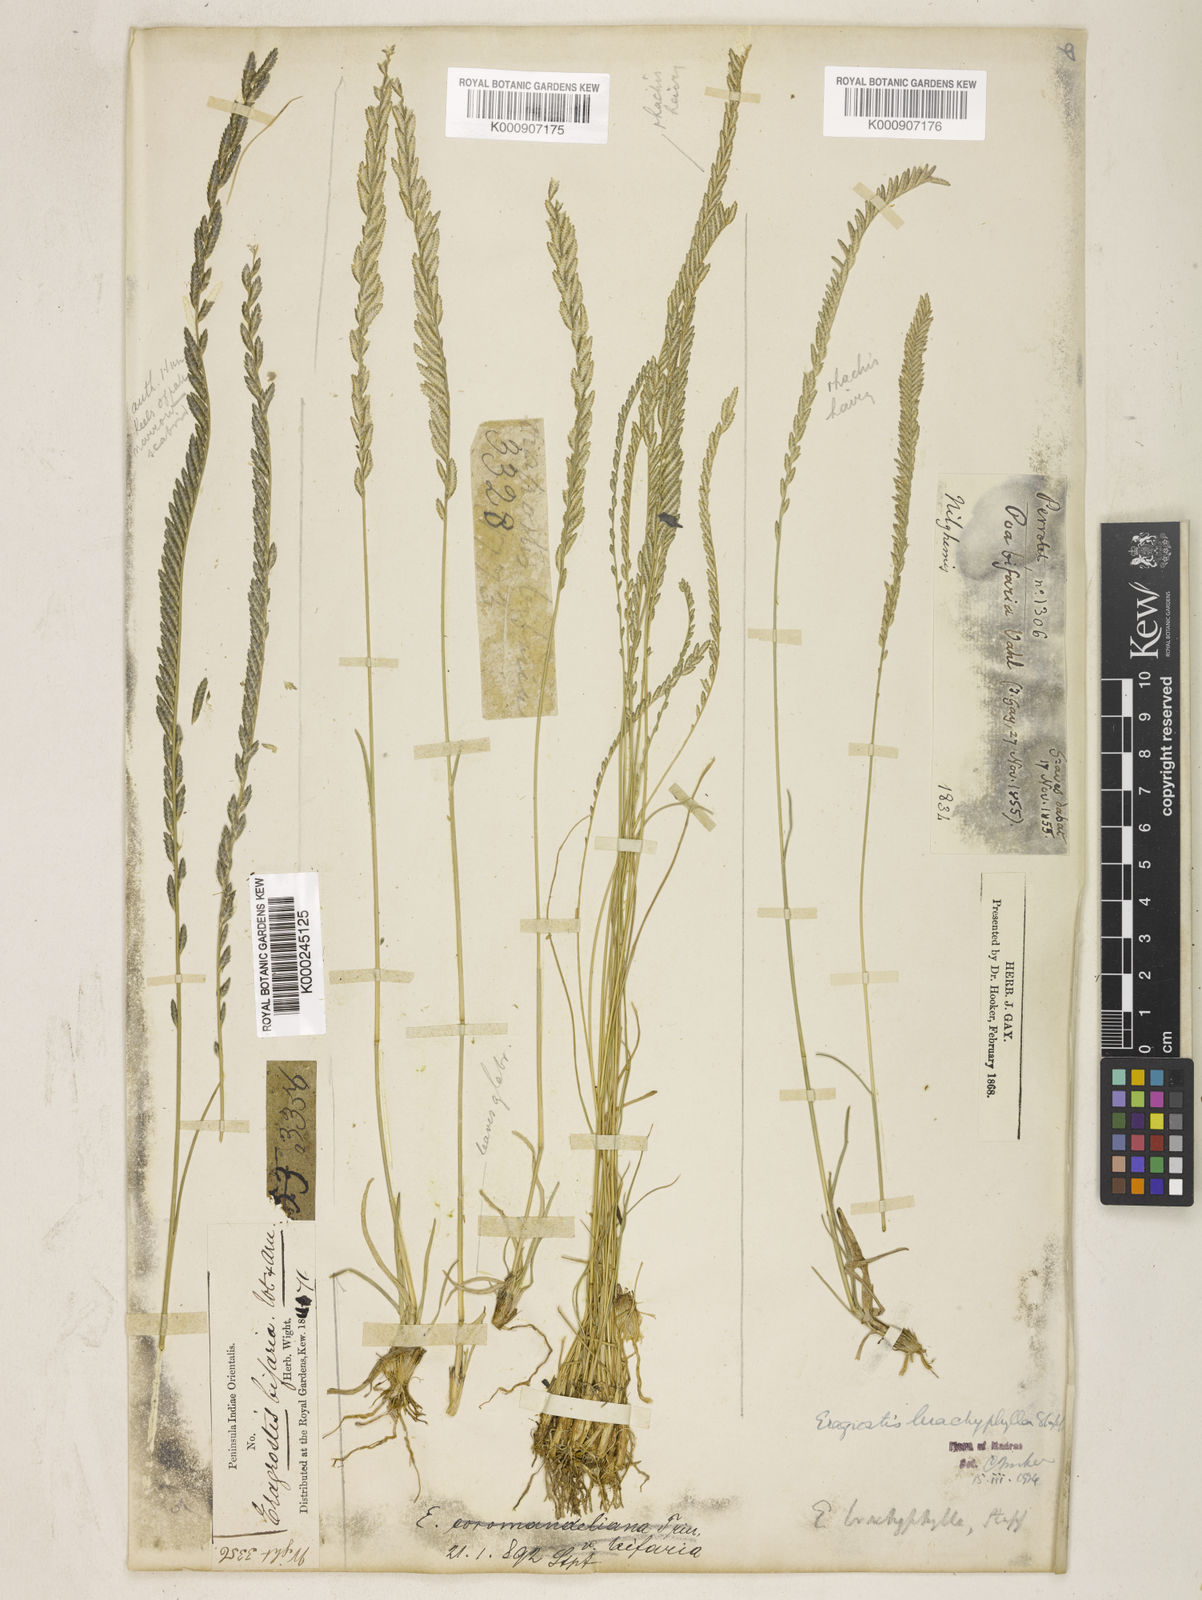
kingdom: Plantae
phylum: Tracheophyta
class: Liliopsida
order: Poales
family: Poaceae
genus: Eragrostiella
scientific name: Eragrostiella brachyphylla
